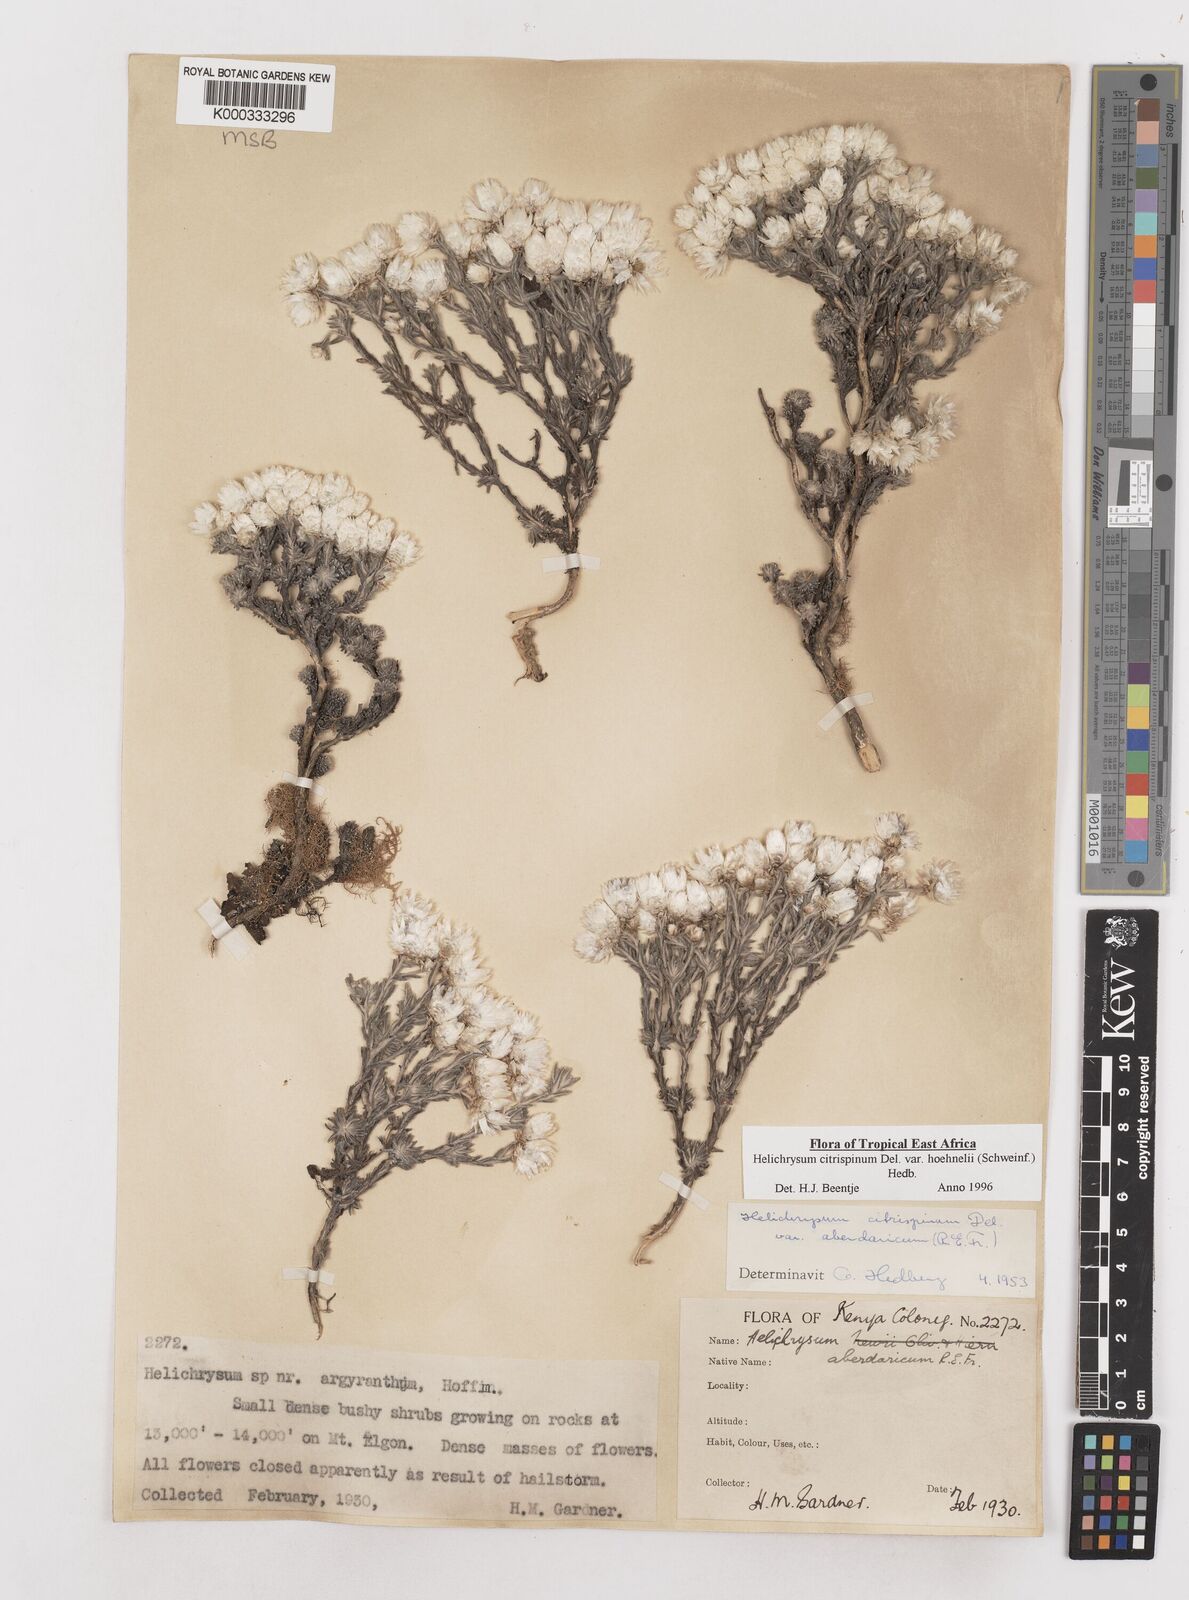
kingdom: Plantae
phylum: Tracheophyta
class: Magnoliopsida
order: Asterales
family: Asteraceae
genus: Helichrysum
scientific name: Helichrysum citrispinum
